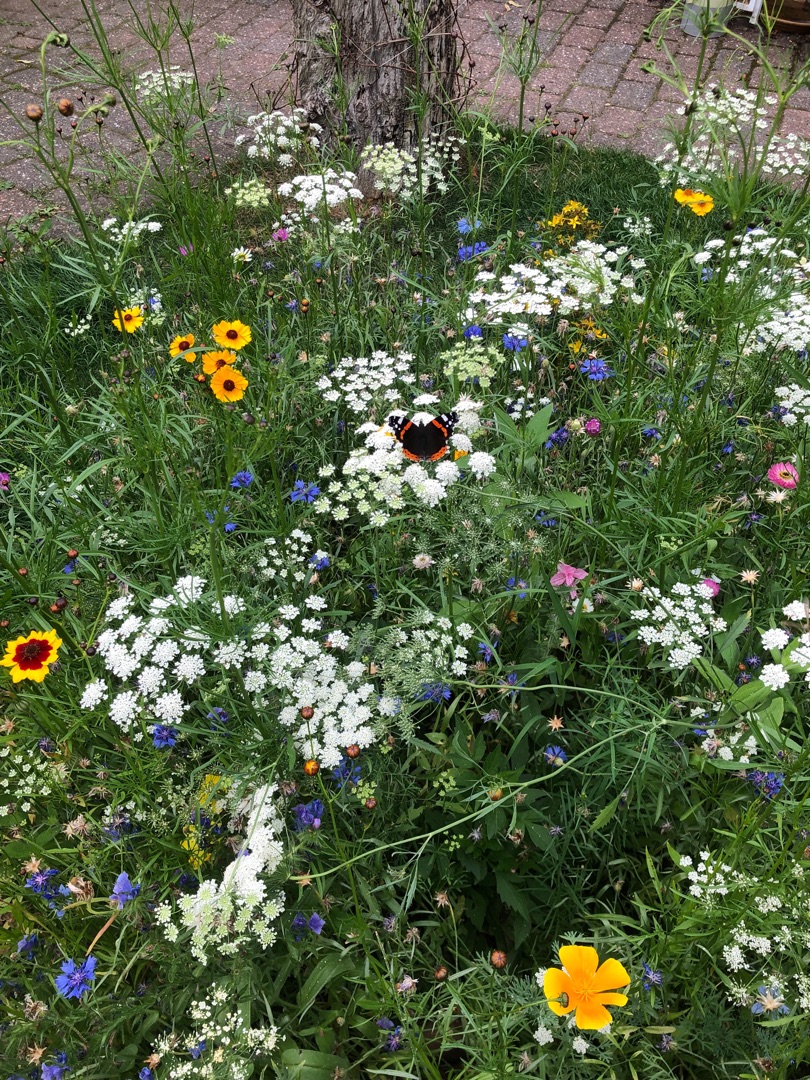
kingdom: Animalia
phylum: Arthropoda
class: Insecta
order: Lepidoptera
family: Nymphalidae
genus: Vanessa
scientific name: Vanessa atalanta
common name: Admiral
